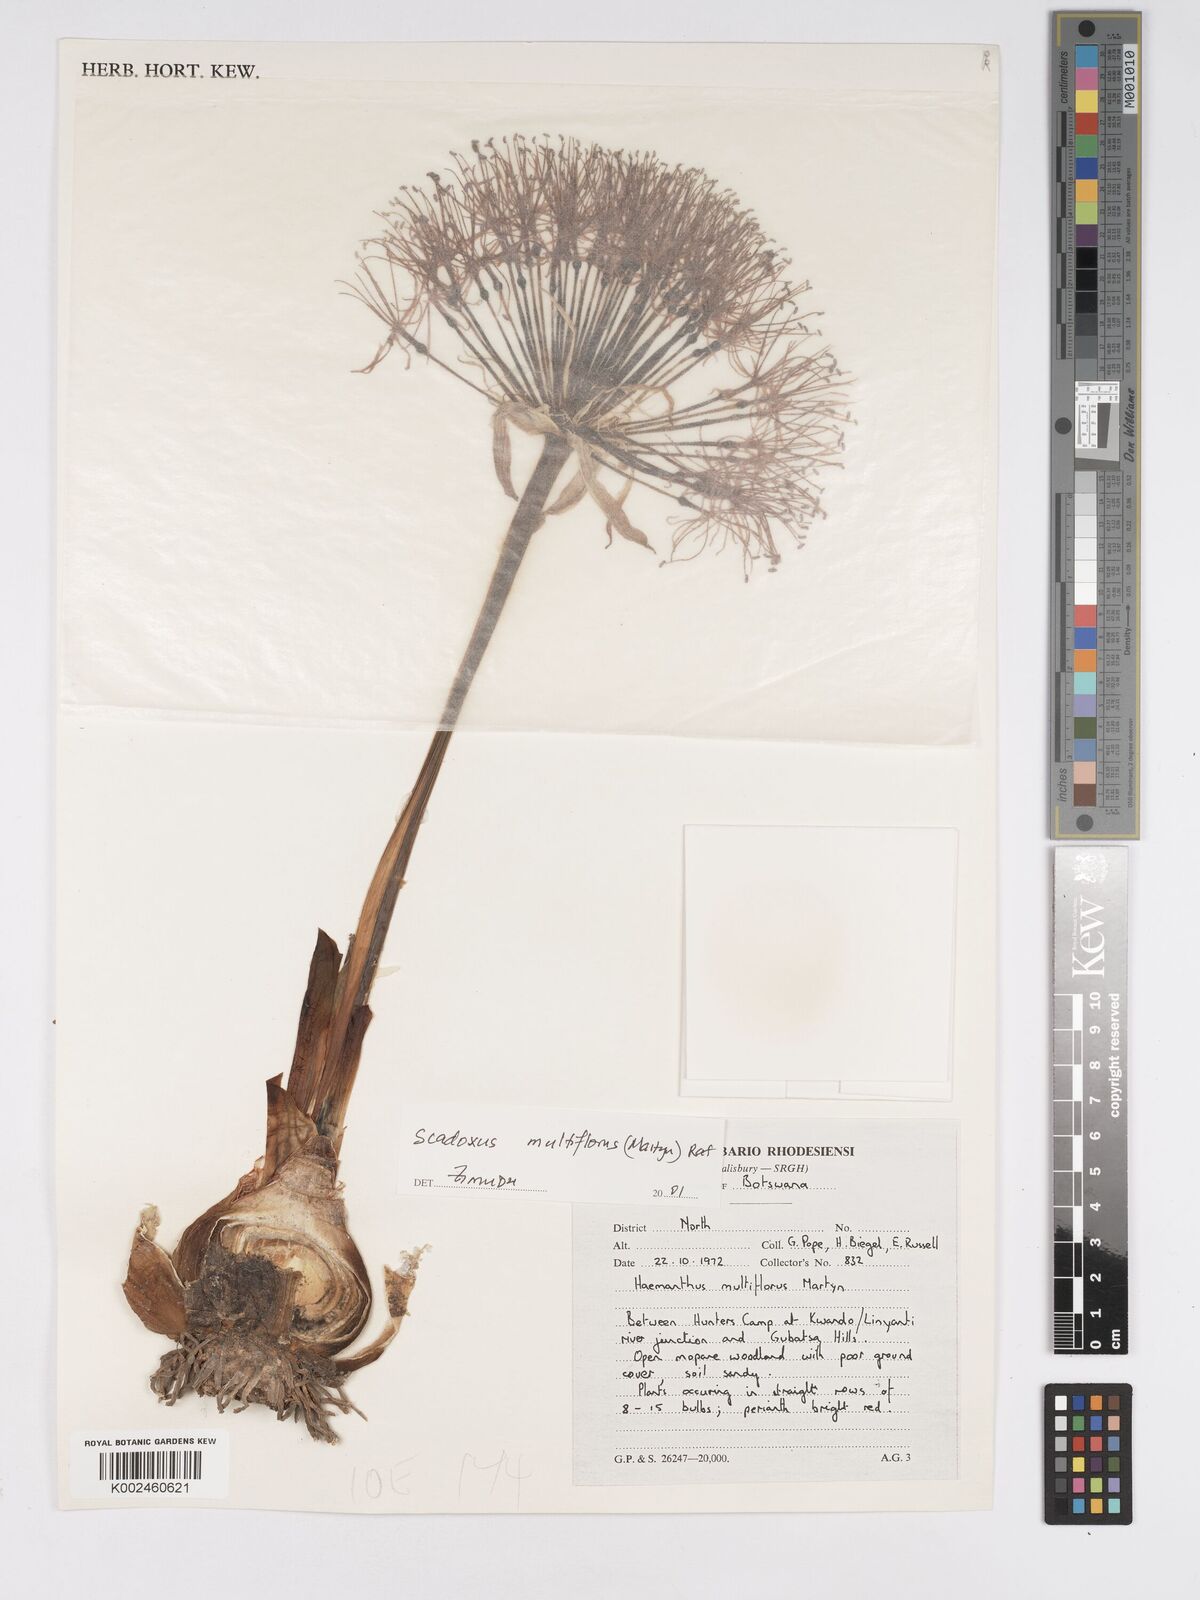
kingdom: Plantae
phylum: Tracheophyta
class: Liliopsida
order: Asparagales
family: Amaryllidaceae
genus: Scadoxus
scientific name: Scadoxus multiflorus
